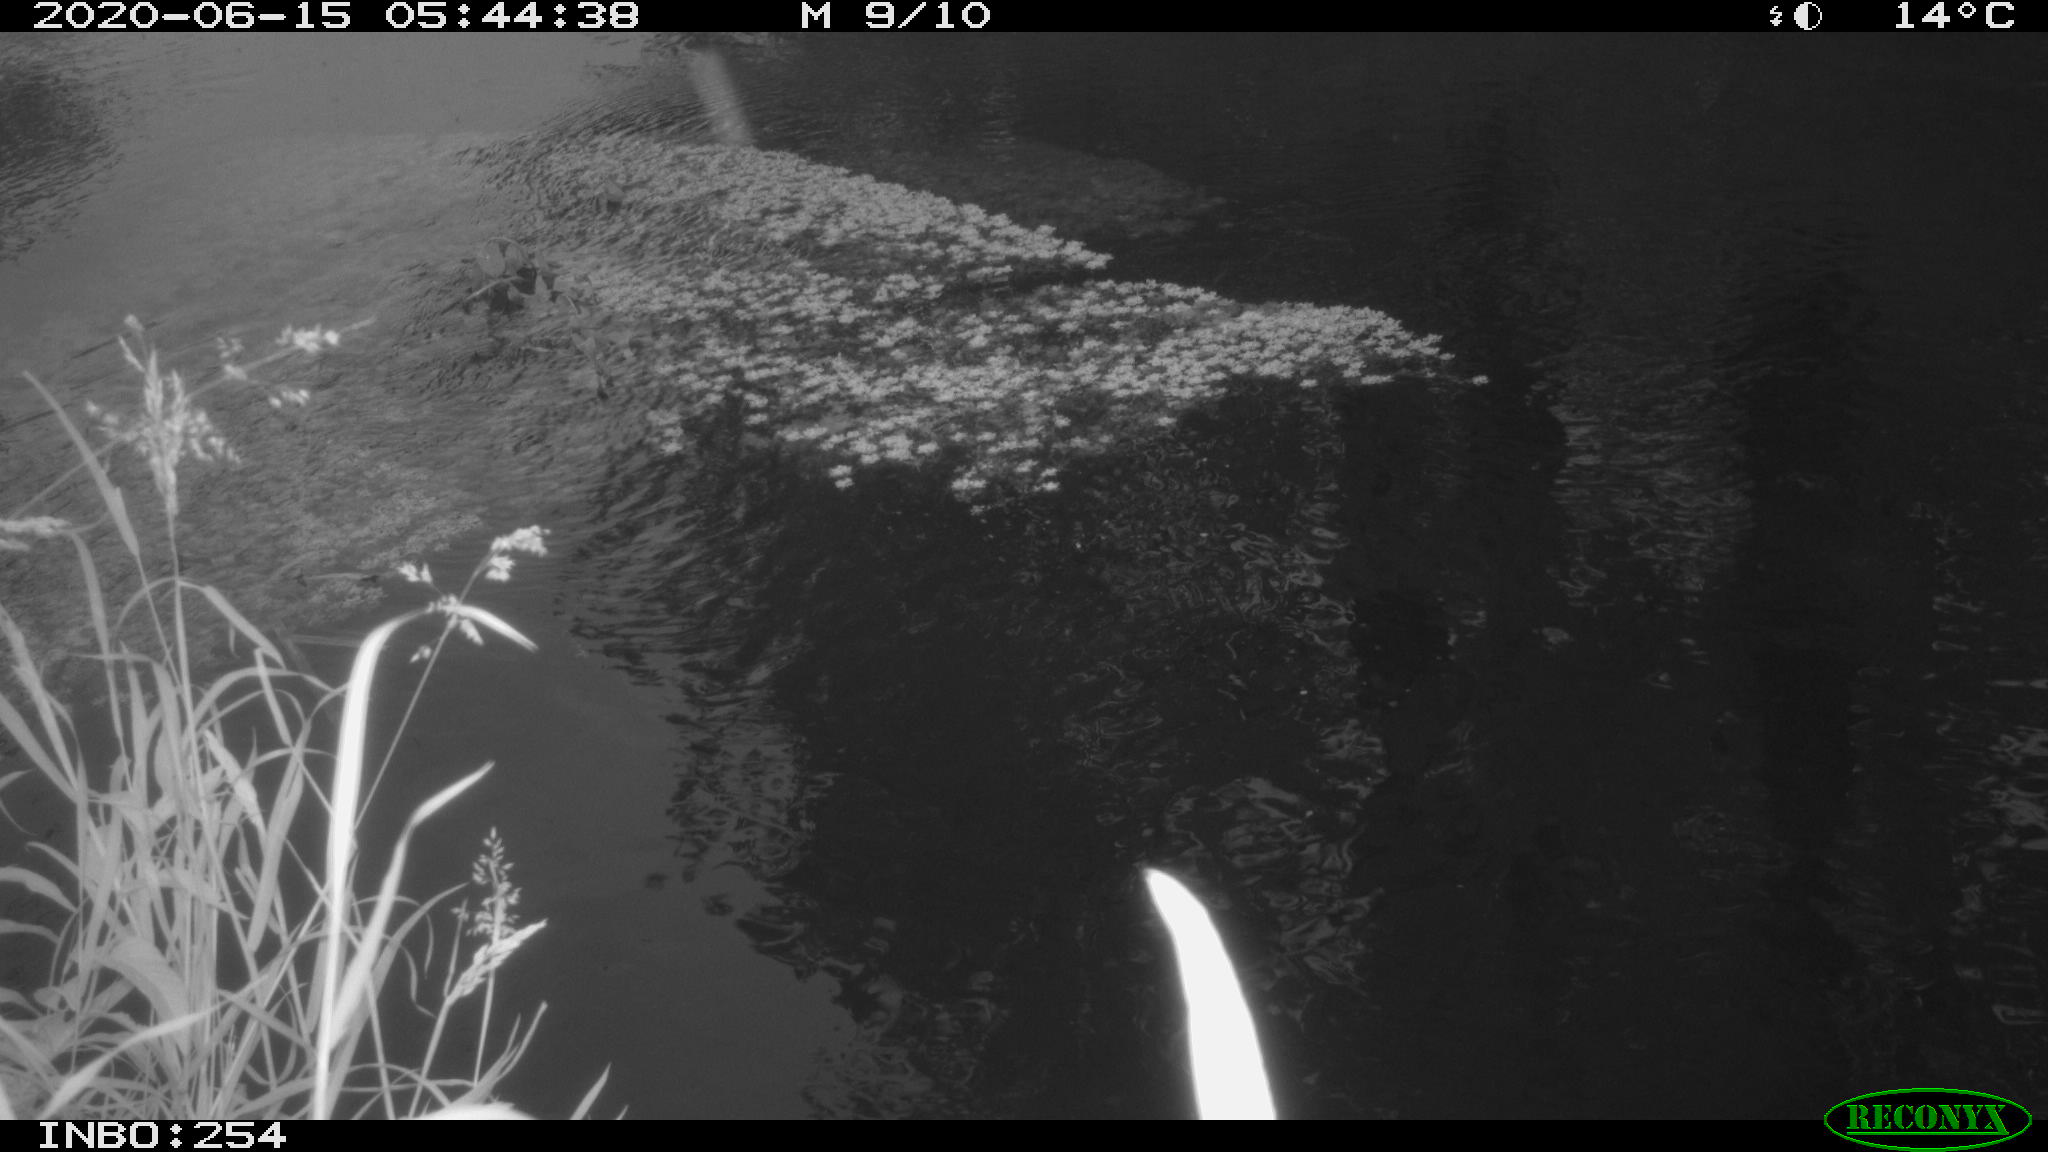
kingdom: Animalia
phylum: Chordata
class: Aves
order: Gruiformes
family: Rallidae
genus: Gallinula
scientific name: Gallinula chloropus
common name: Common moorhen
